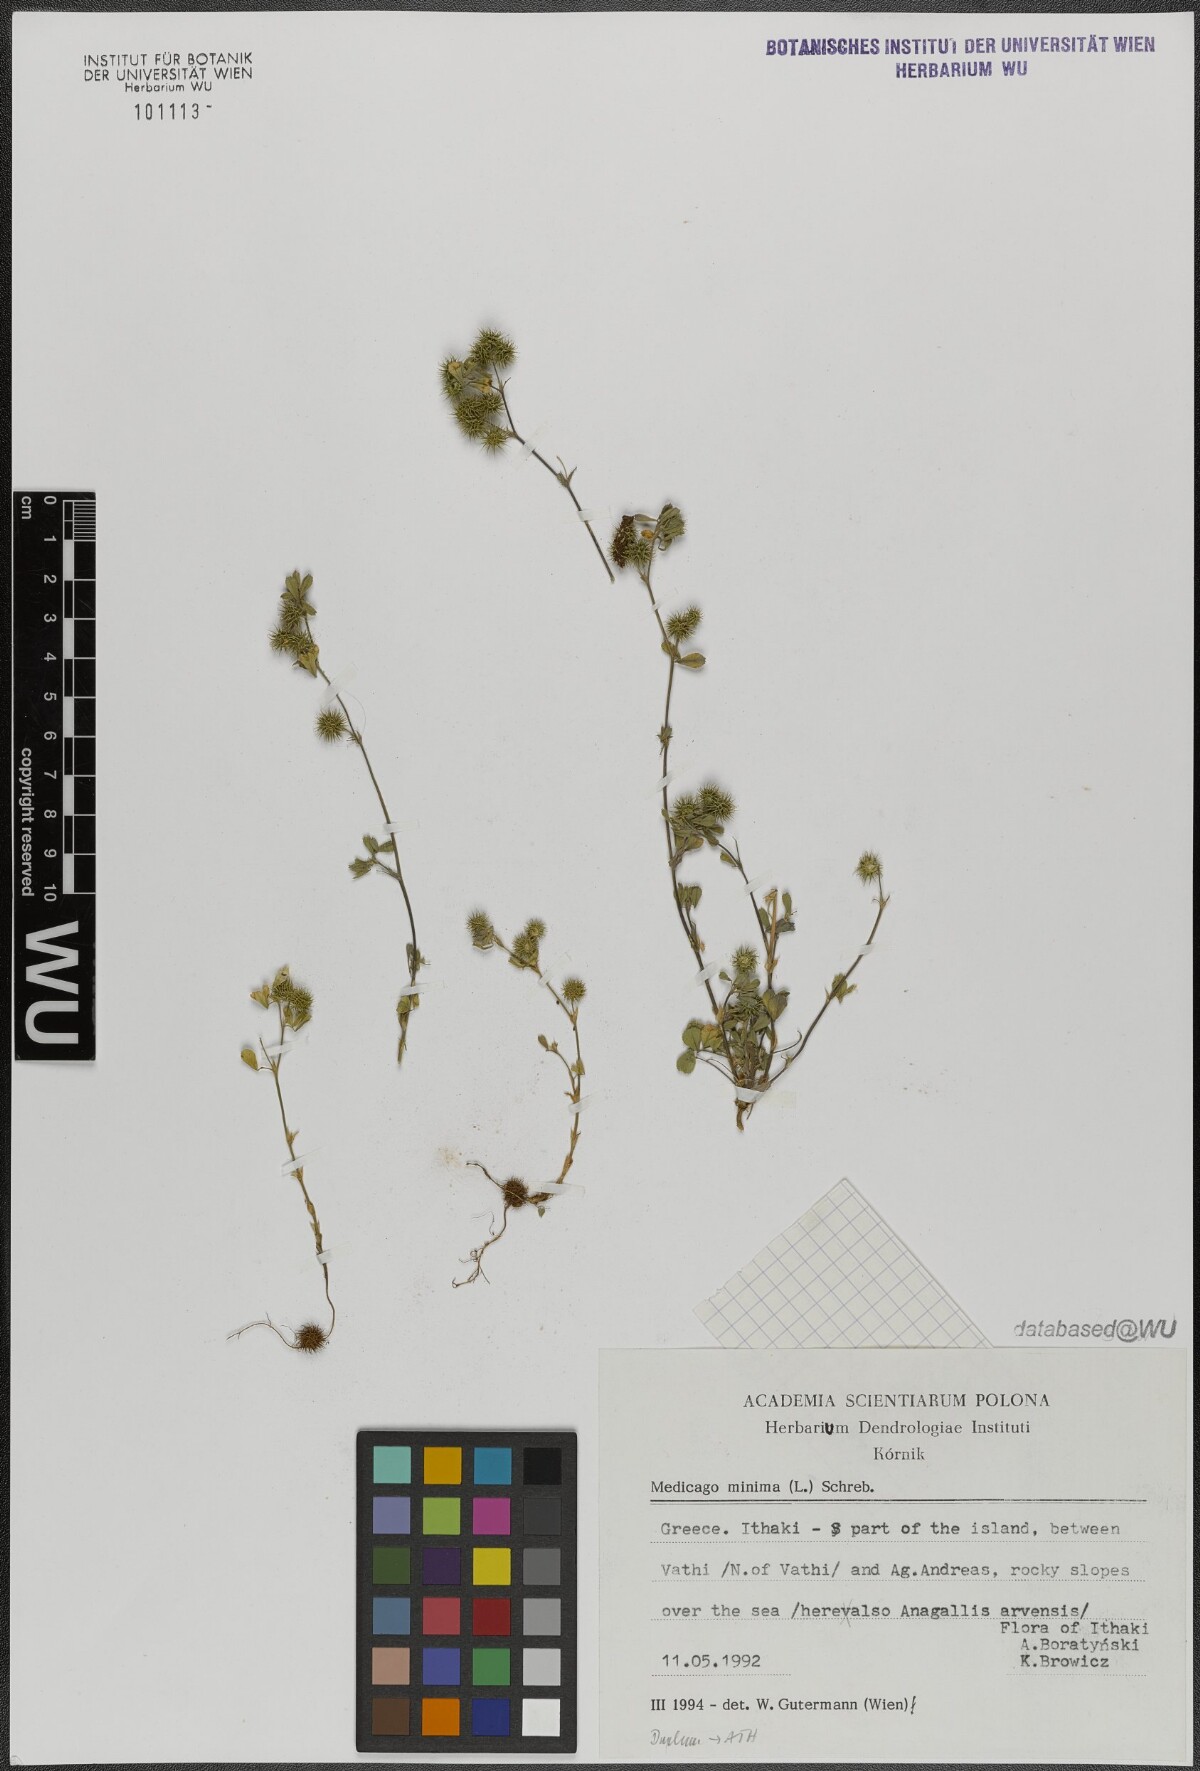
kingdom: Plantae
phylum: Tracheophyta
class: Magnoliopsida
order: Fabales
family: Fabaceae
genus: Medicago
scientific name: Medicago minima
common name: Little bur-clover
